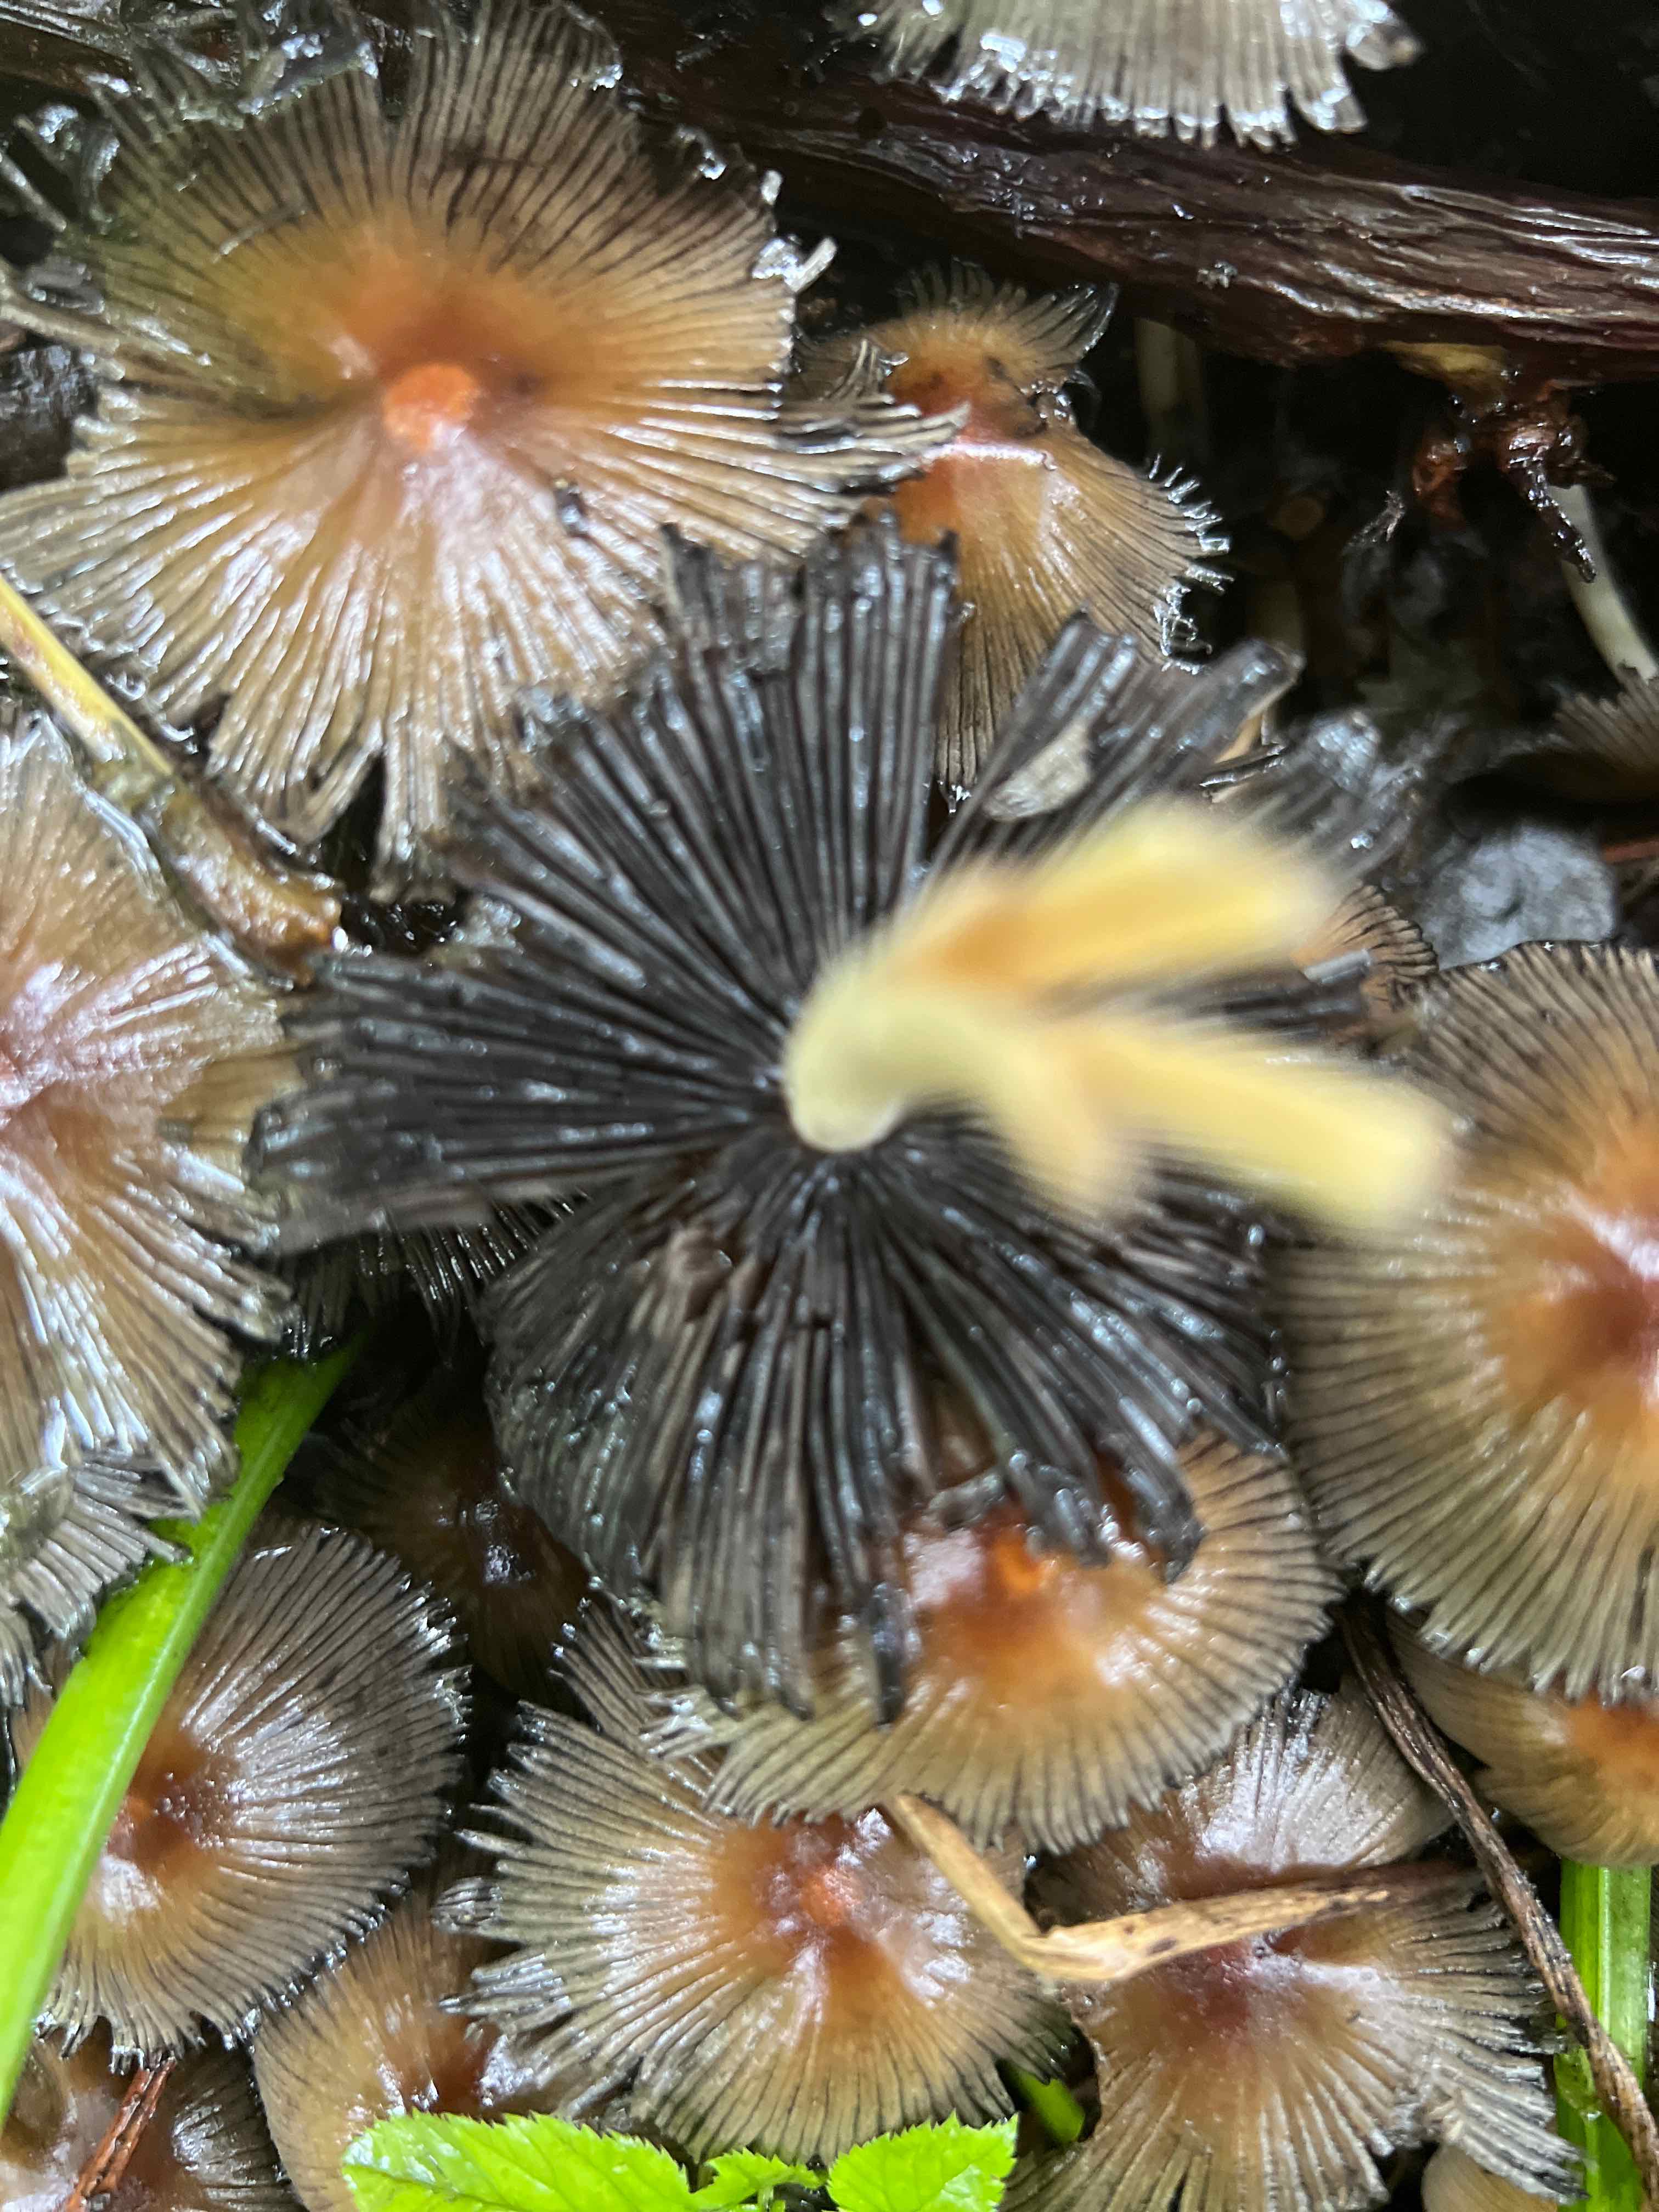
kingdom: Fungi
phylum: Basidiomycota
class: Agaricomycetes
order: Agaricales
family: Psathyrellaceae
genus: Coprinellus
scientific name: Coprinellus micaceus
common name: glimmer-blækhat
